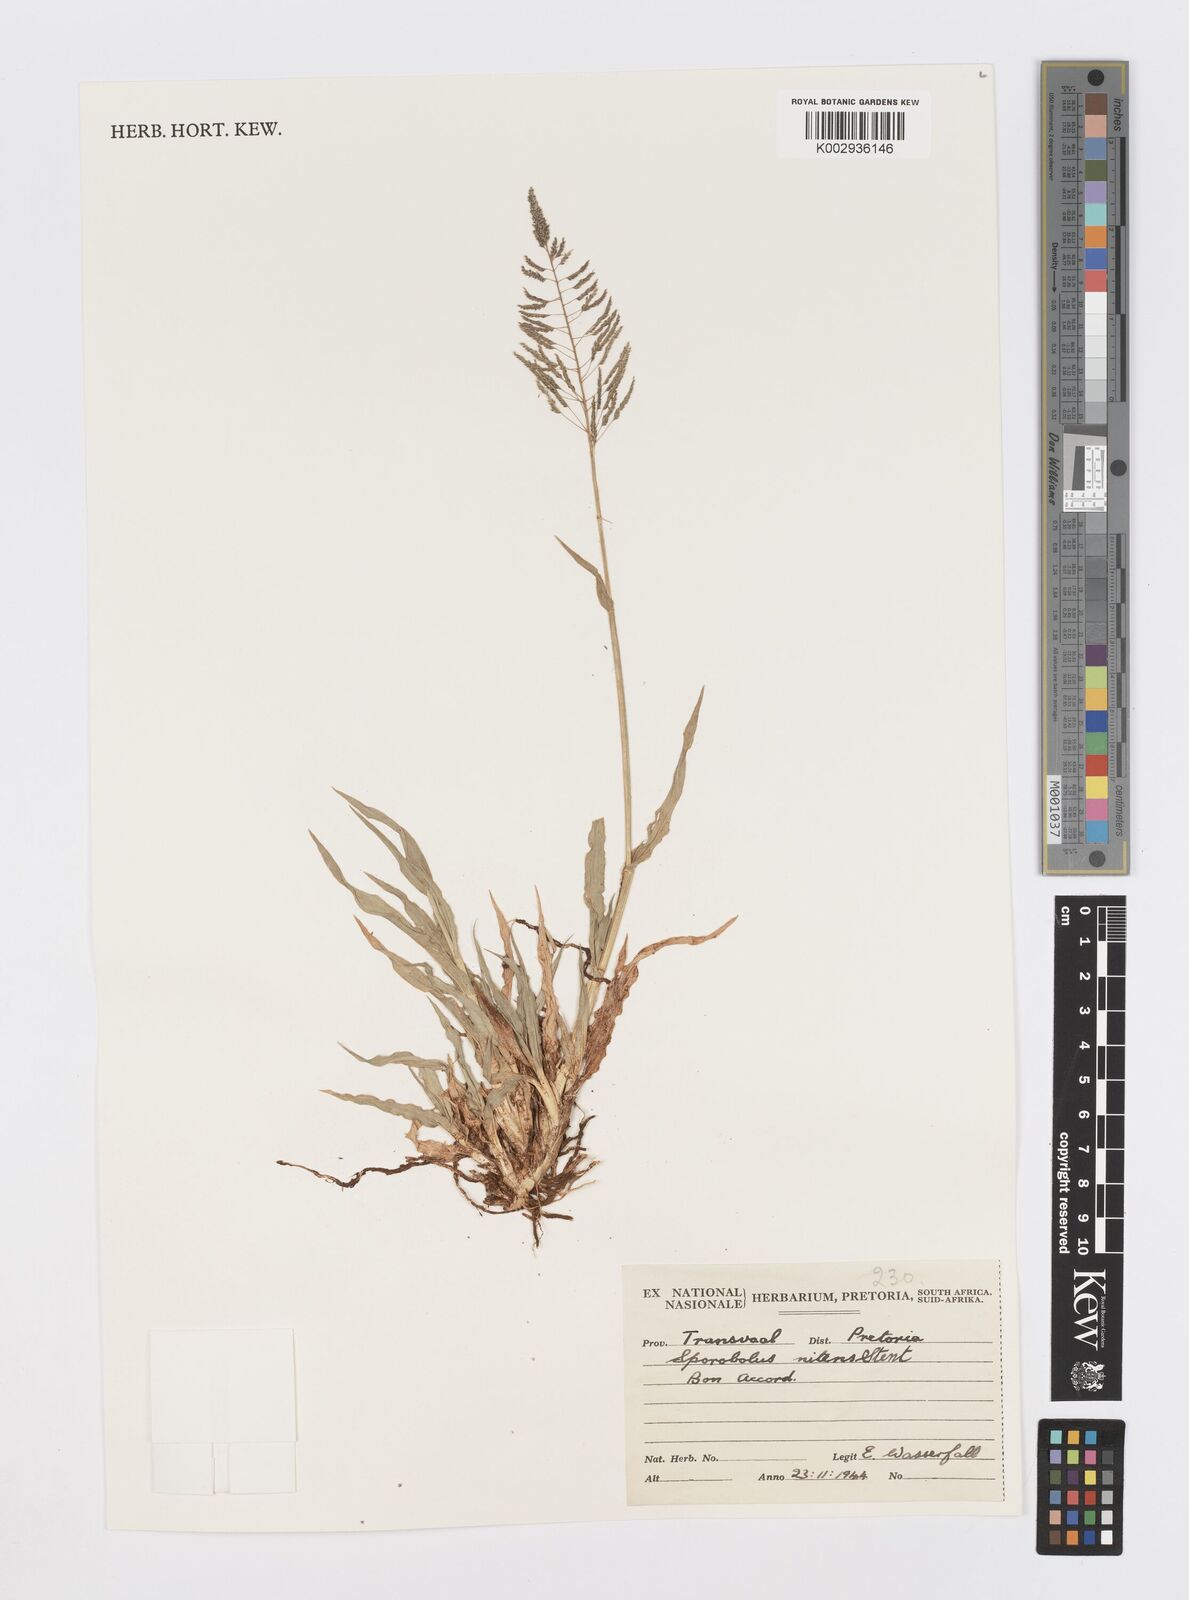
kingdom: Plantae
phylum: Tracheophyta
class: Liliopsida
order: Poales
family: Poaceae
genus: Sporobolus
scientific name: Sporobolus nitens
